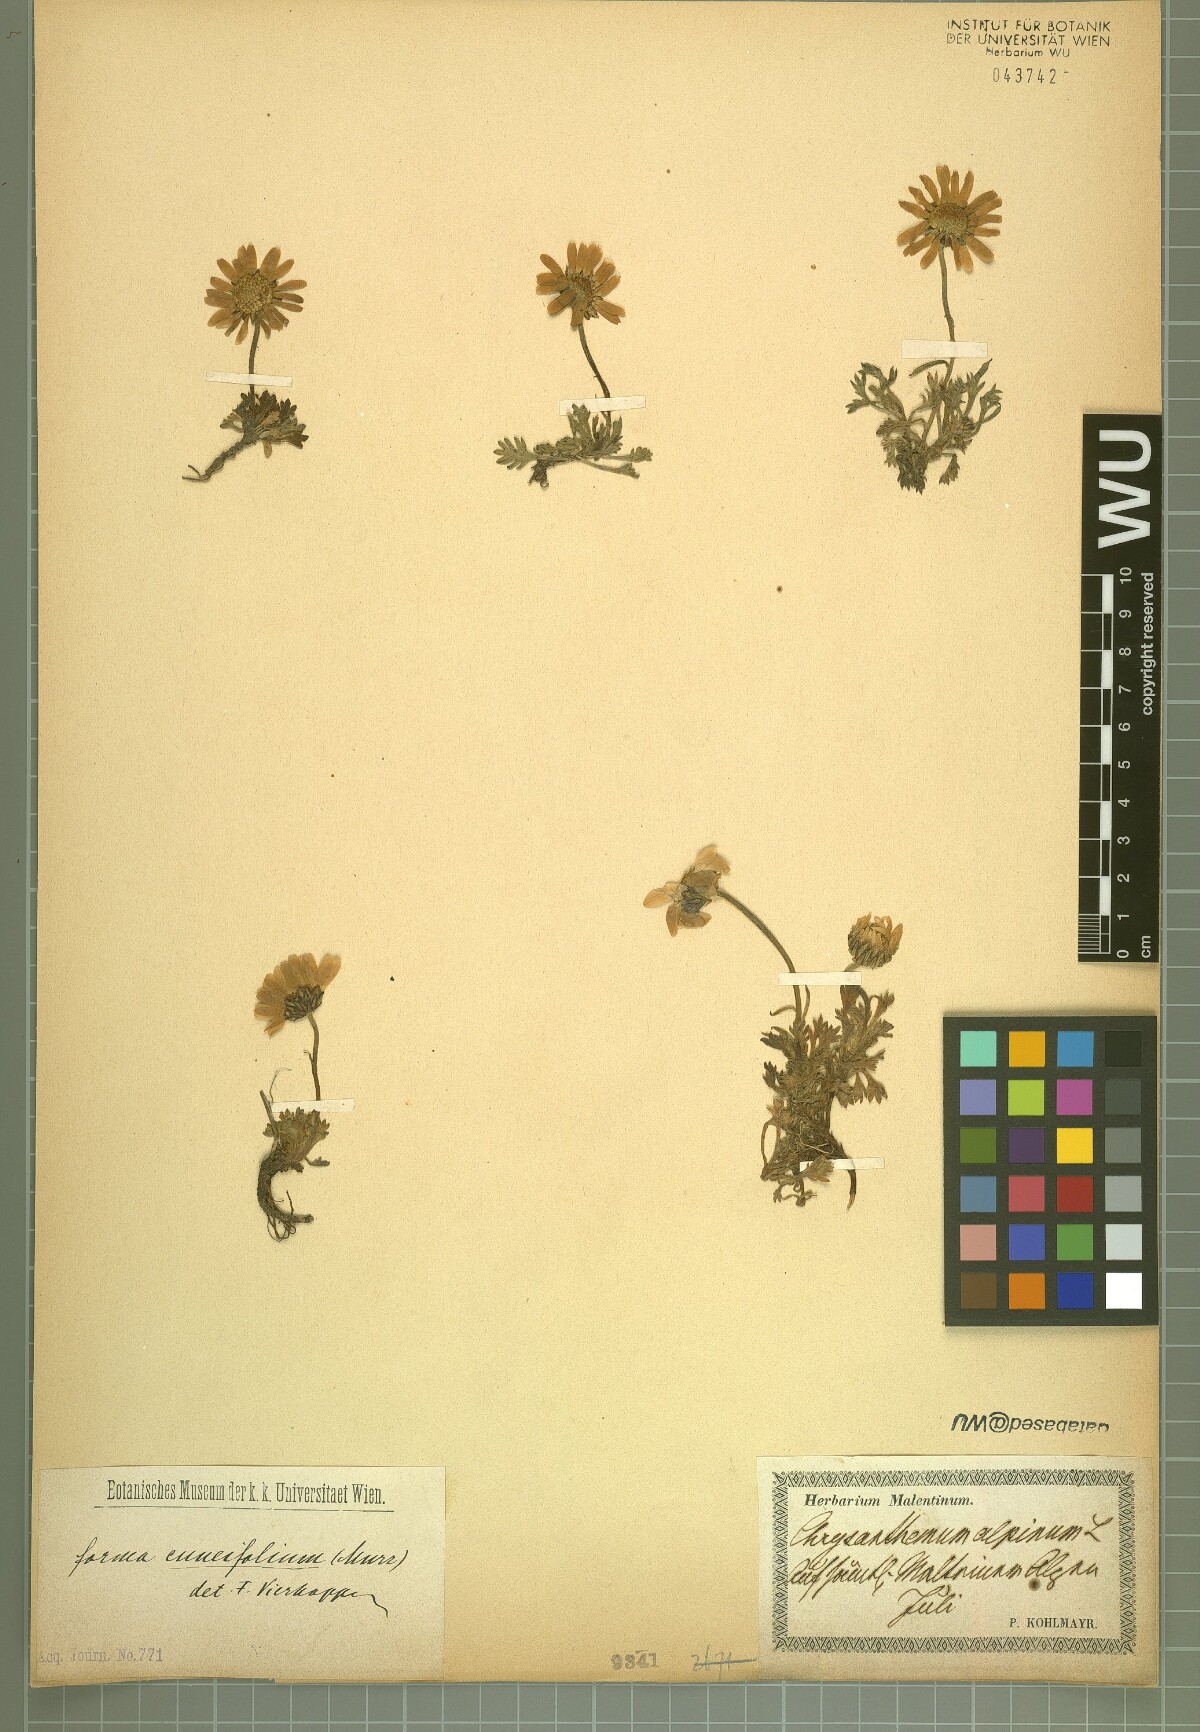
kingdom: Plantae
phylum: Tracheophyta
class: Magnoliopsida
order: Asterales
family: Asteraceae
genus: Leucanthemopsis
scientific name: Leucanthemopsis alpina
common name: Alpine moon daisy
